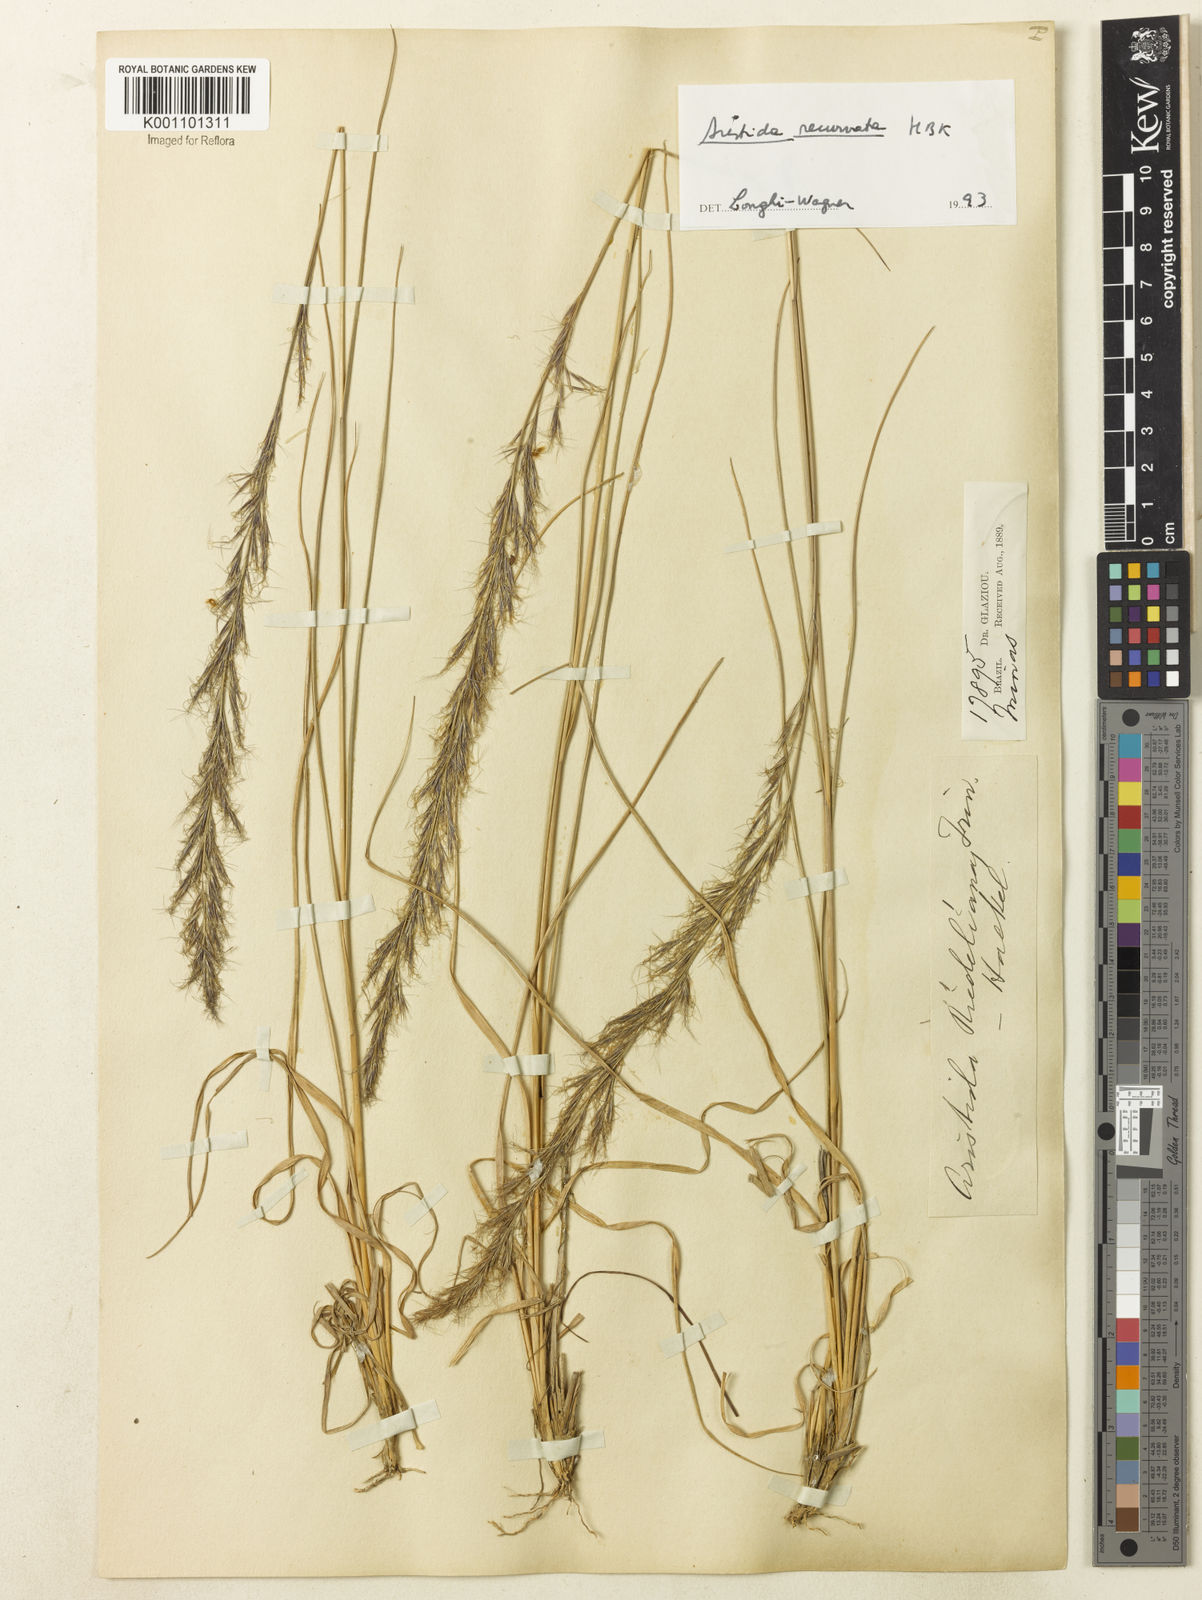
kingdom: Plantae
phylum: Tracheophyta
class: Liliopsida
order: Poales
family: Poaceae
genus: Aristida
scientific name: Aristida recurvata
